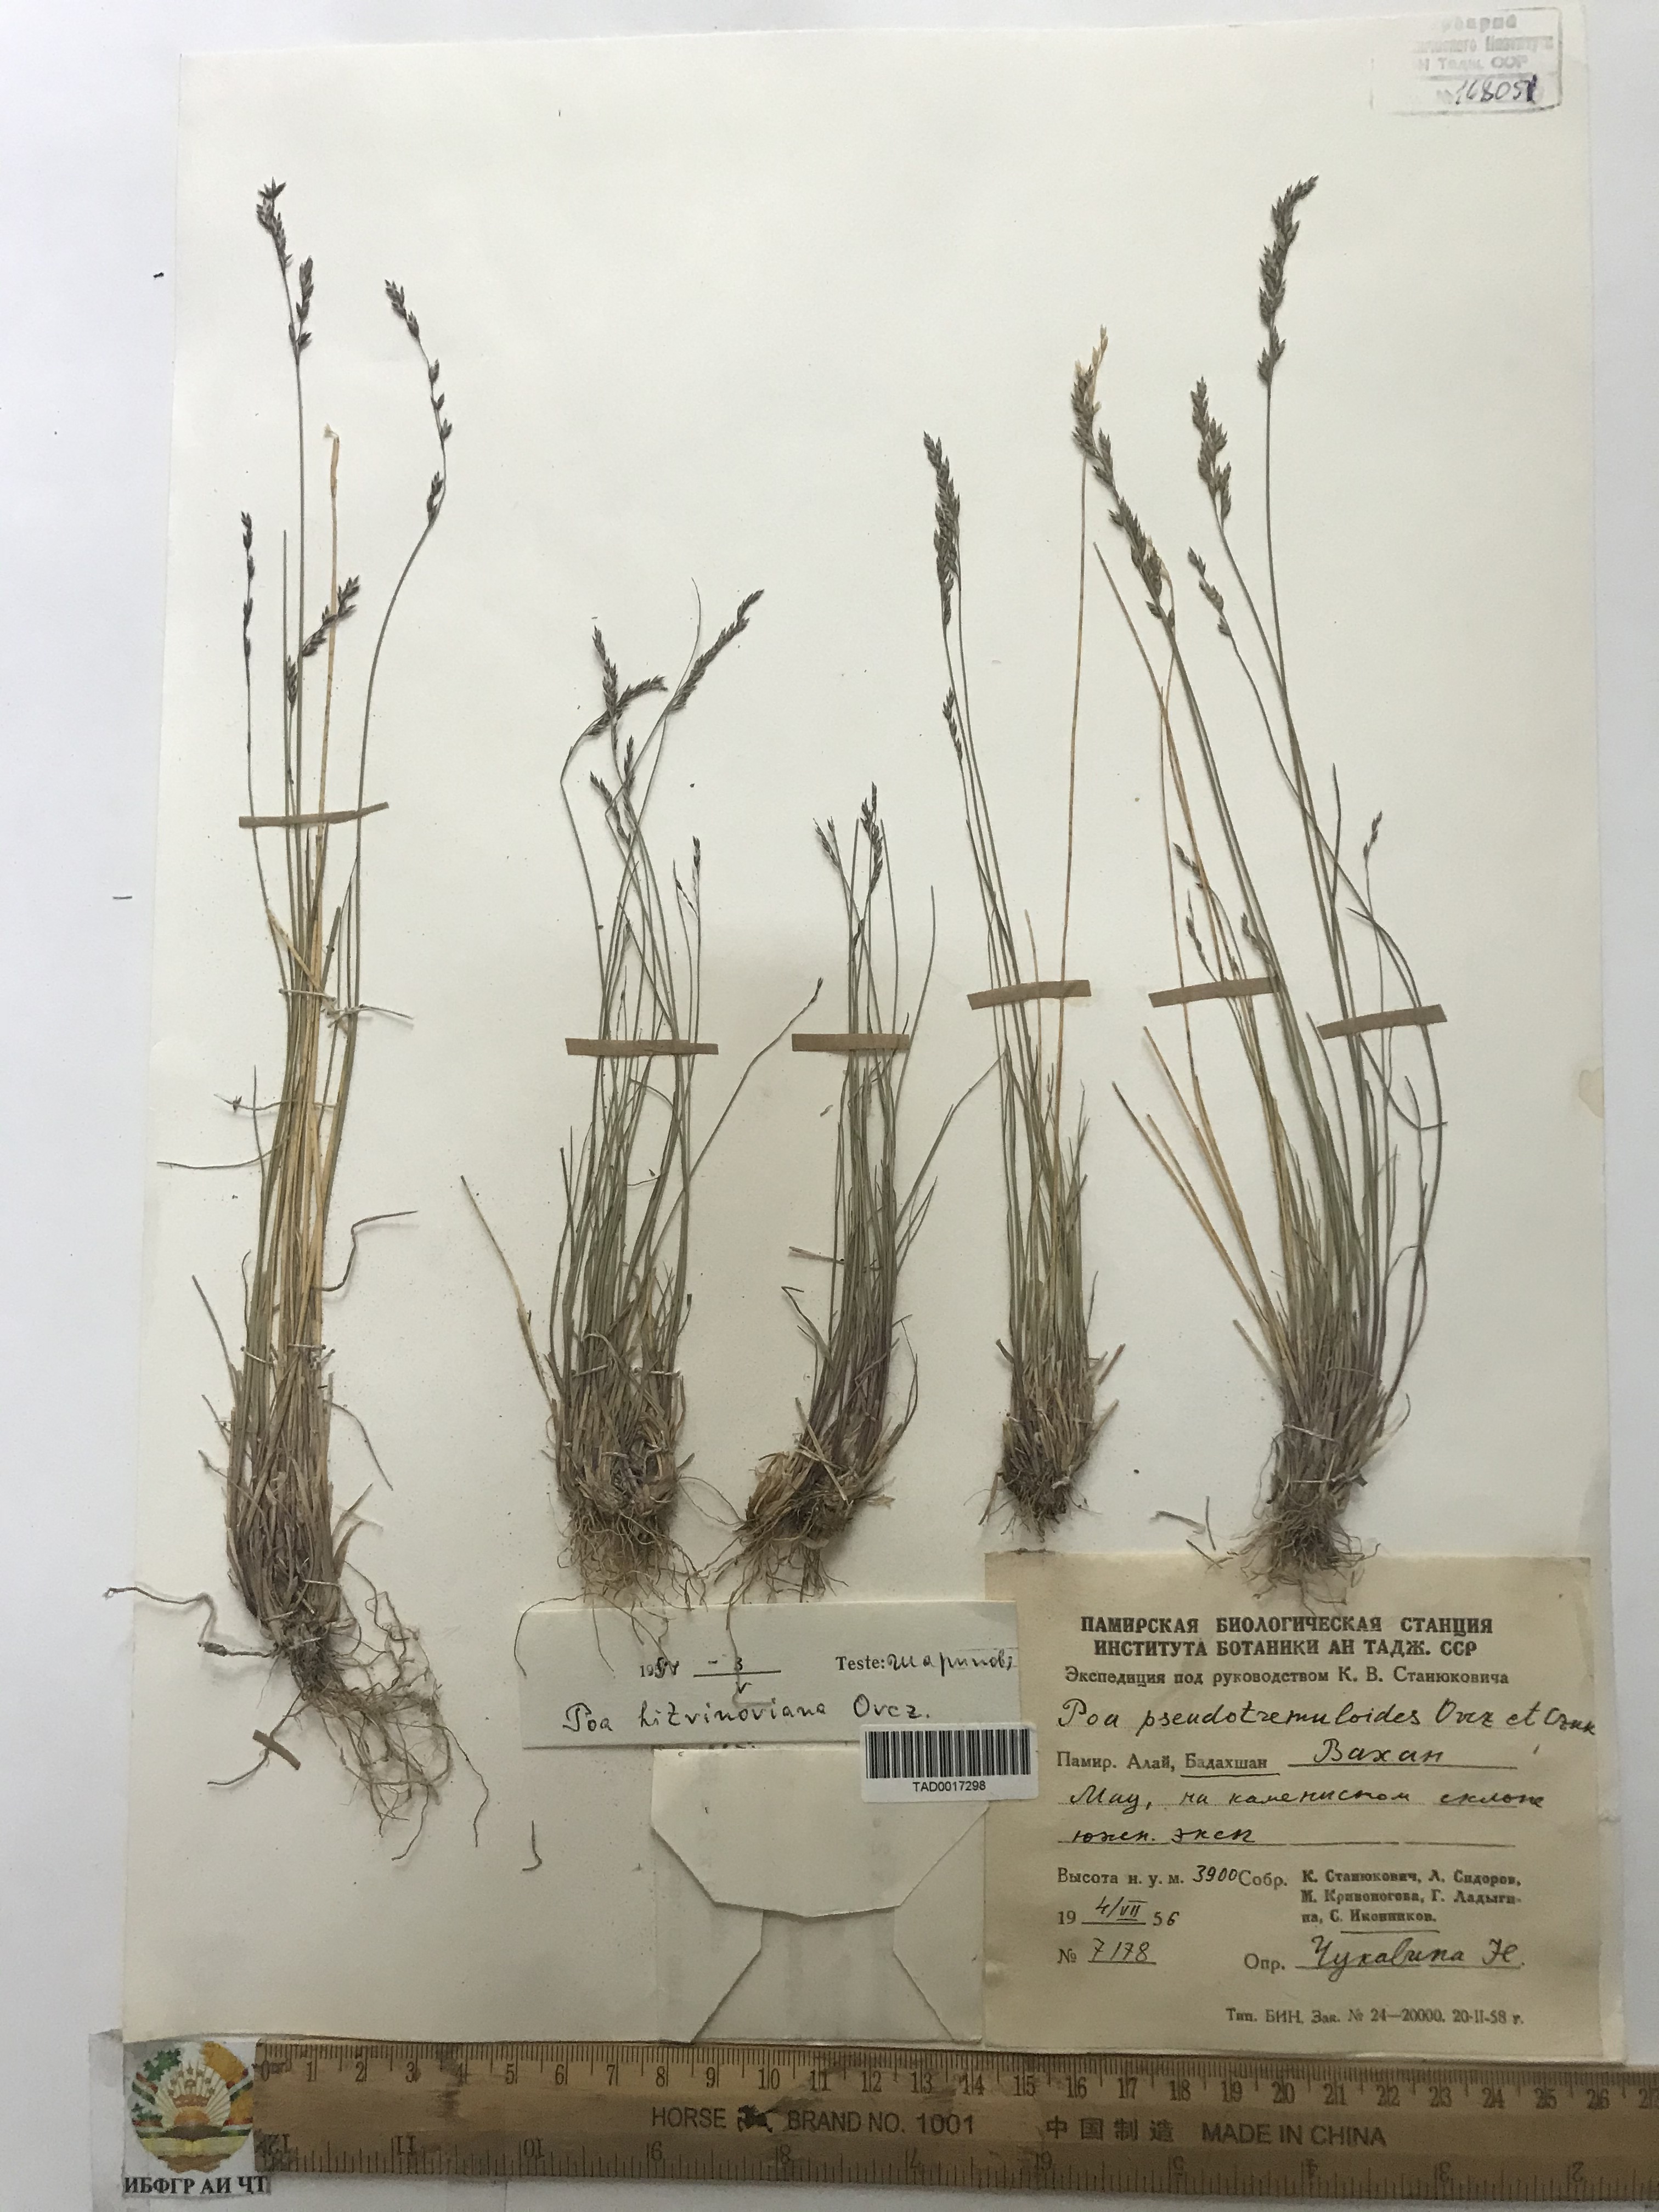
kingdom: Plantae
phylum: Tracheophyta
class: Liliopsida
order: Poales
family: Poaceae
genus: Poa
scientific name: Poa glauca
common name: Glaucous bluegrass
